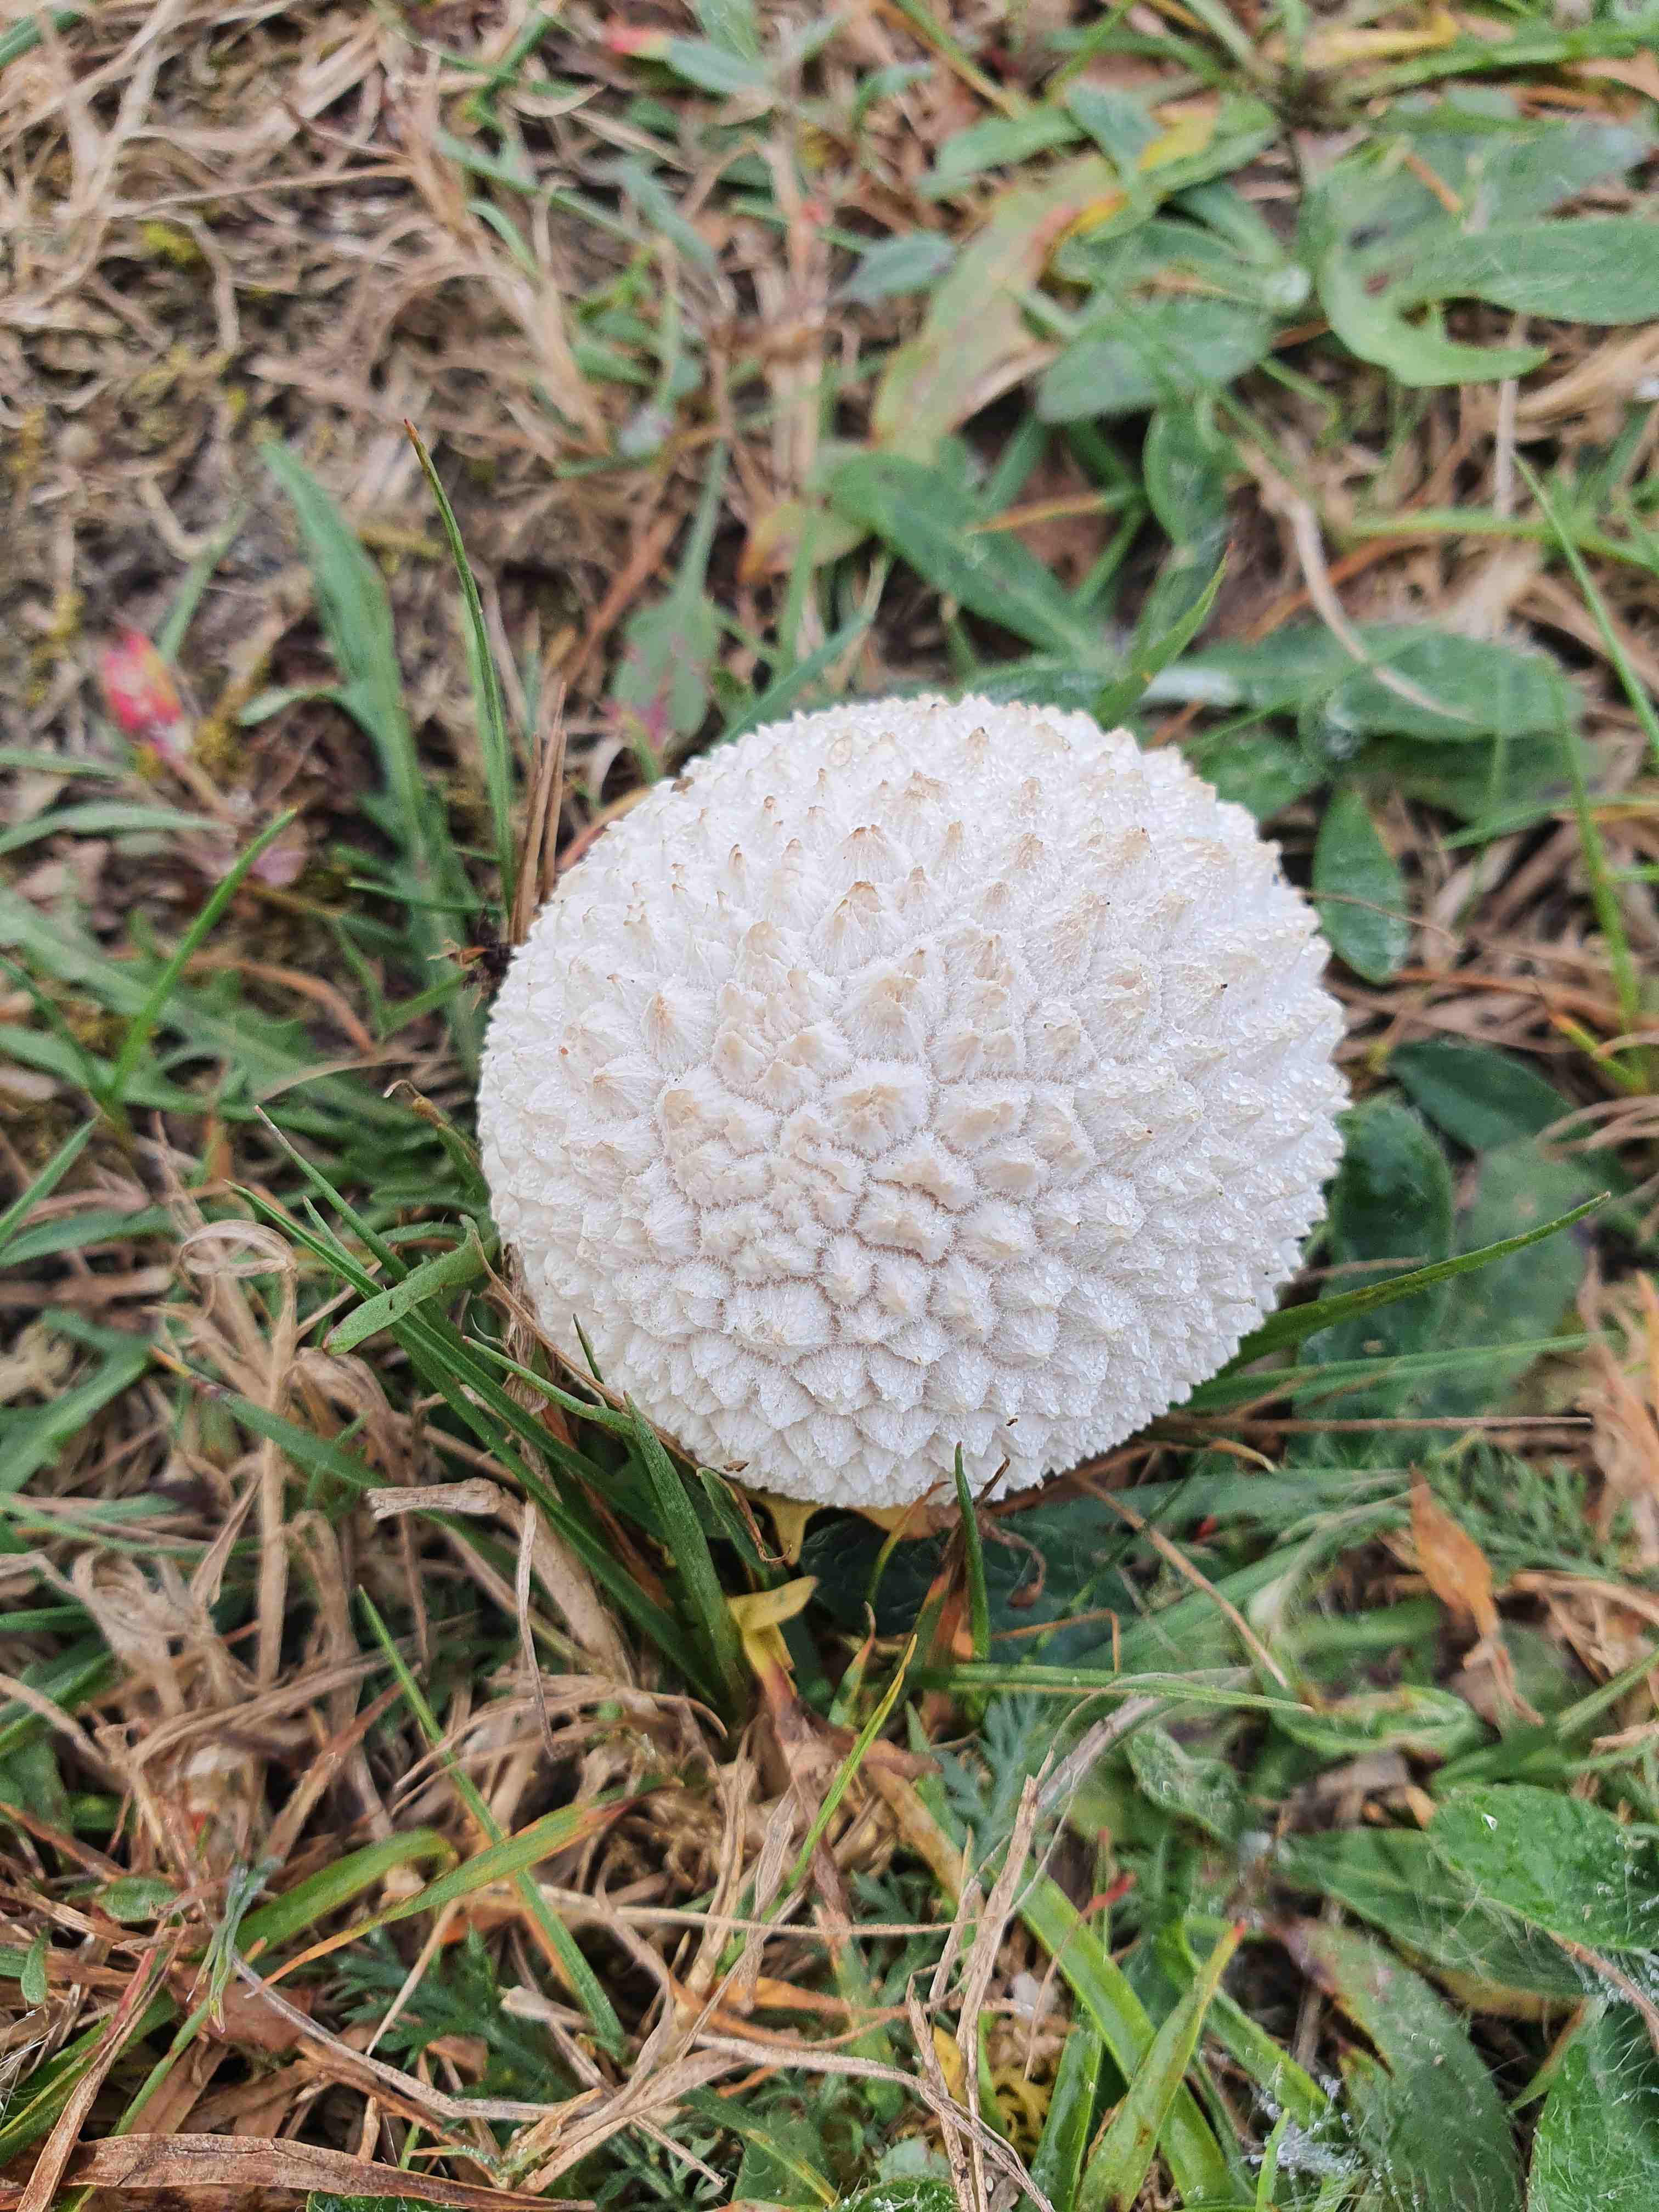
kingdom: Fungi
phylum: Basidiomycota
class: Agaricomycetes
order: Agaricales
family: Lycoperdaceae
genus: Bovistella
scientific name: Bovistella utriformis
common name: skællet støvbold
